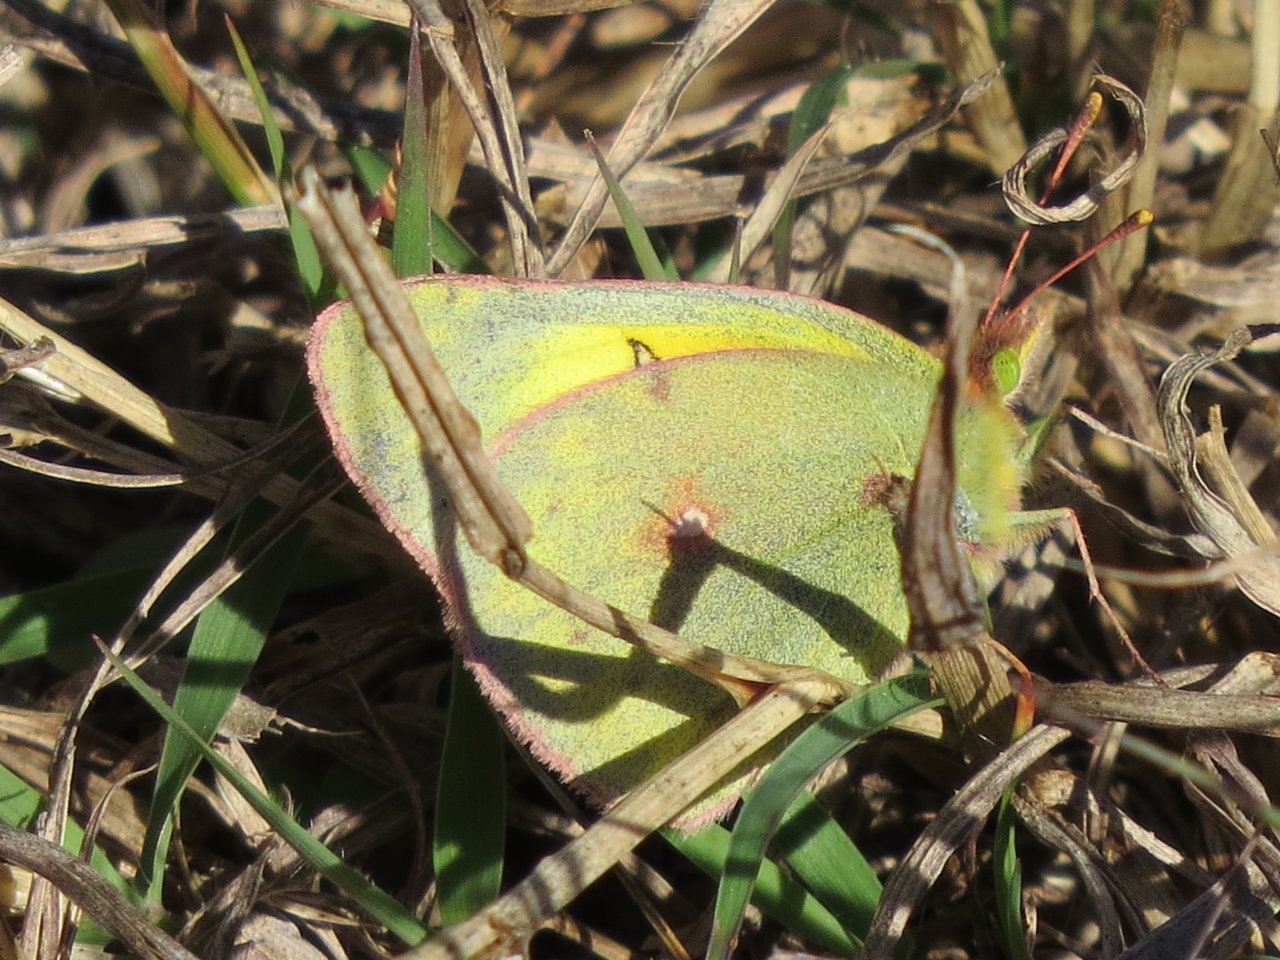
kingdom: Animalia
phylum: Arthropoda
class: Insecta
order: Lepidoptera
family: Pieridae
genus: Colias
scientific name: Colias philodice
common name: Clouded Sulphur
